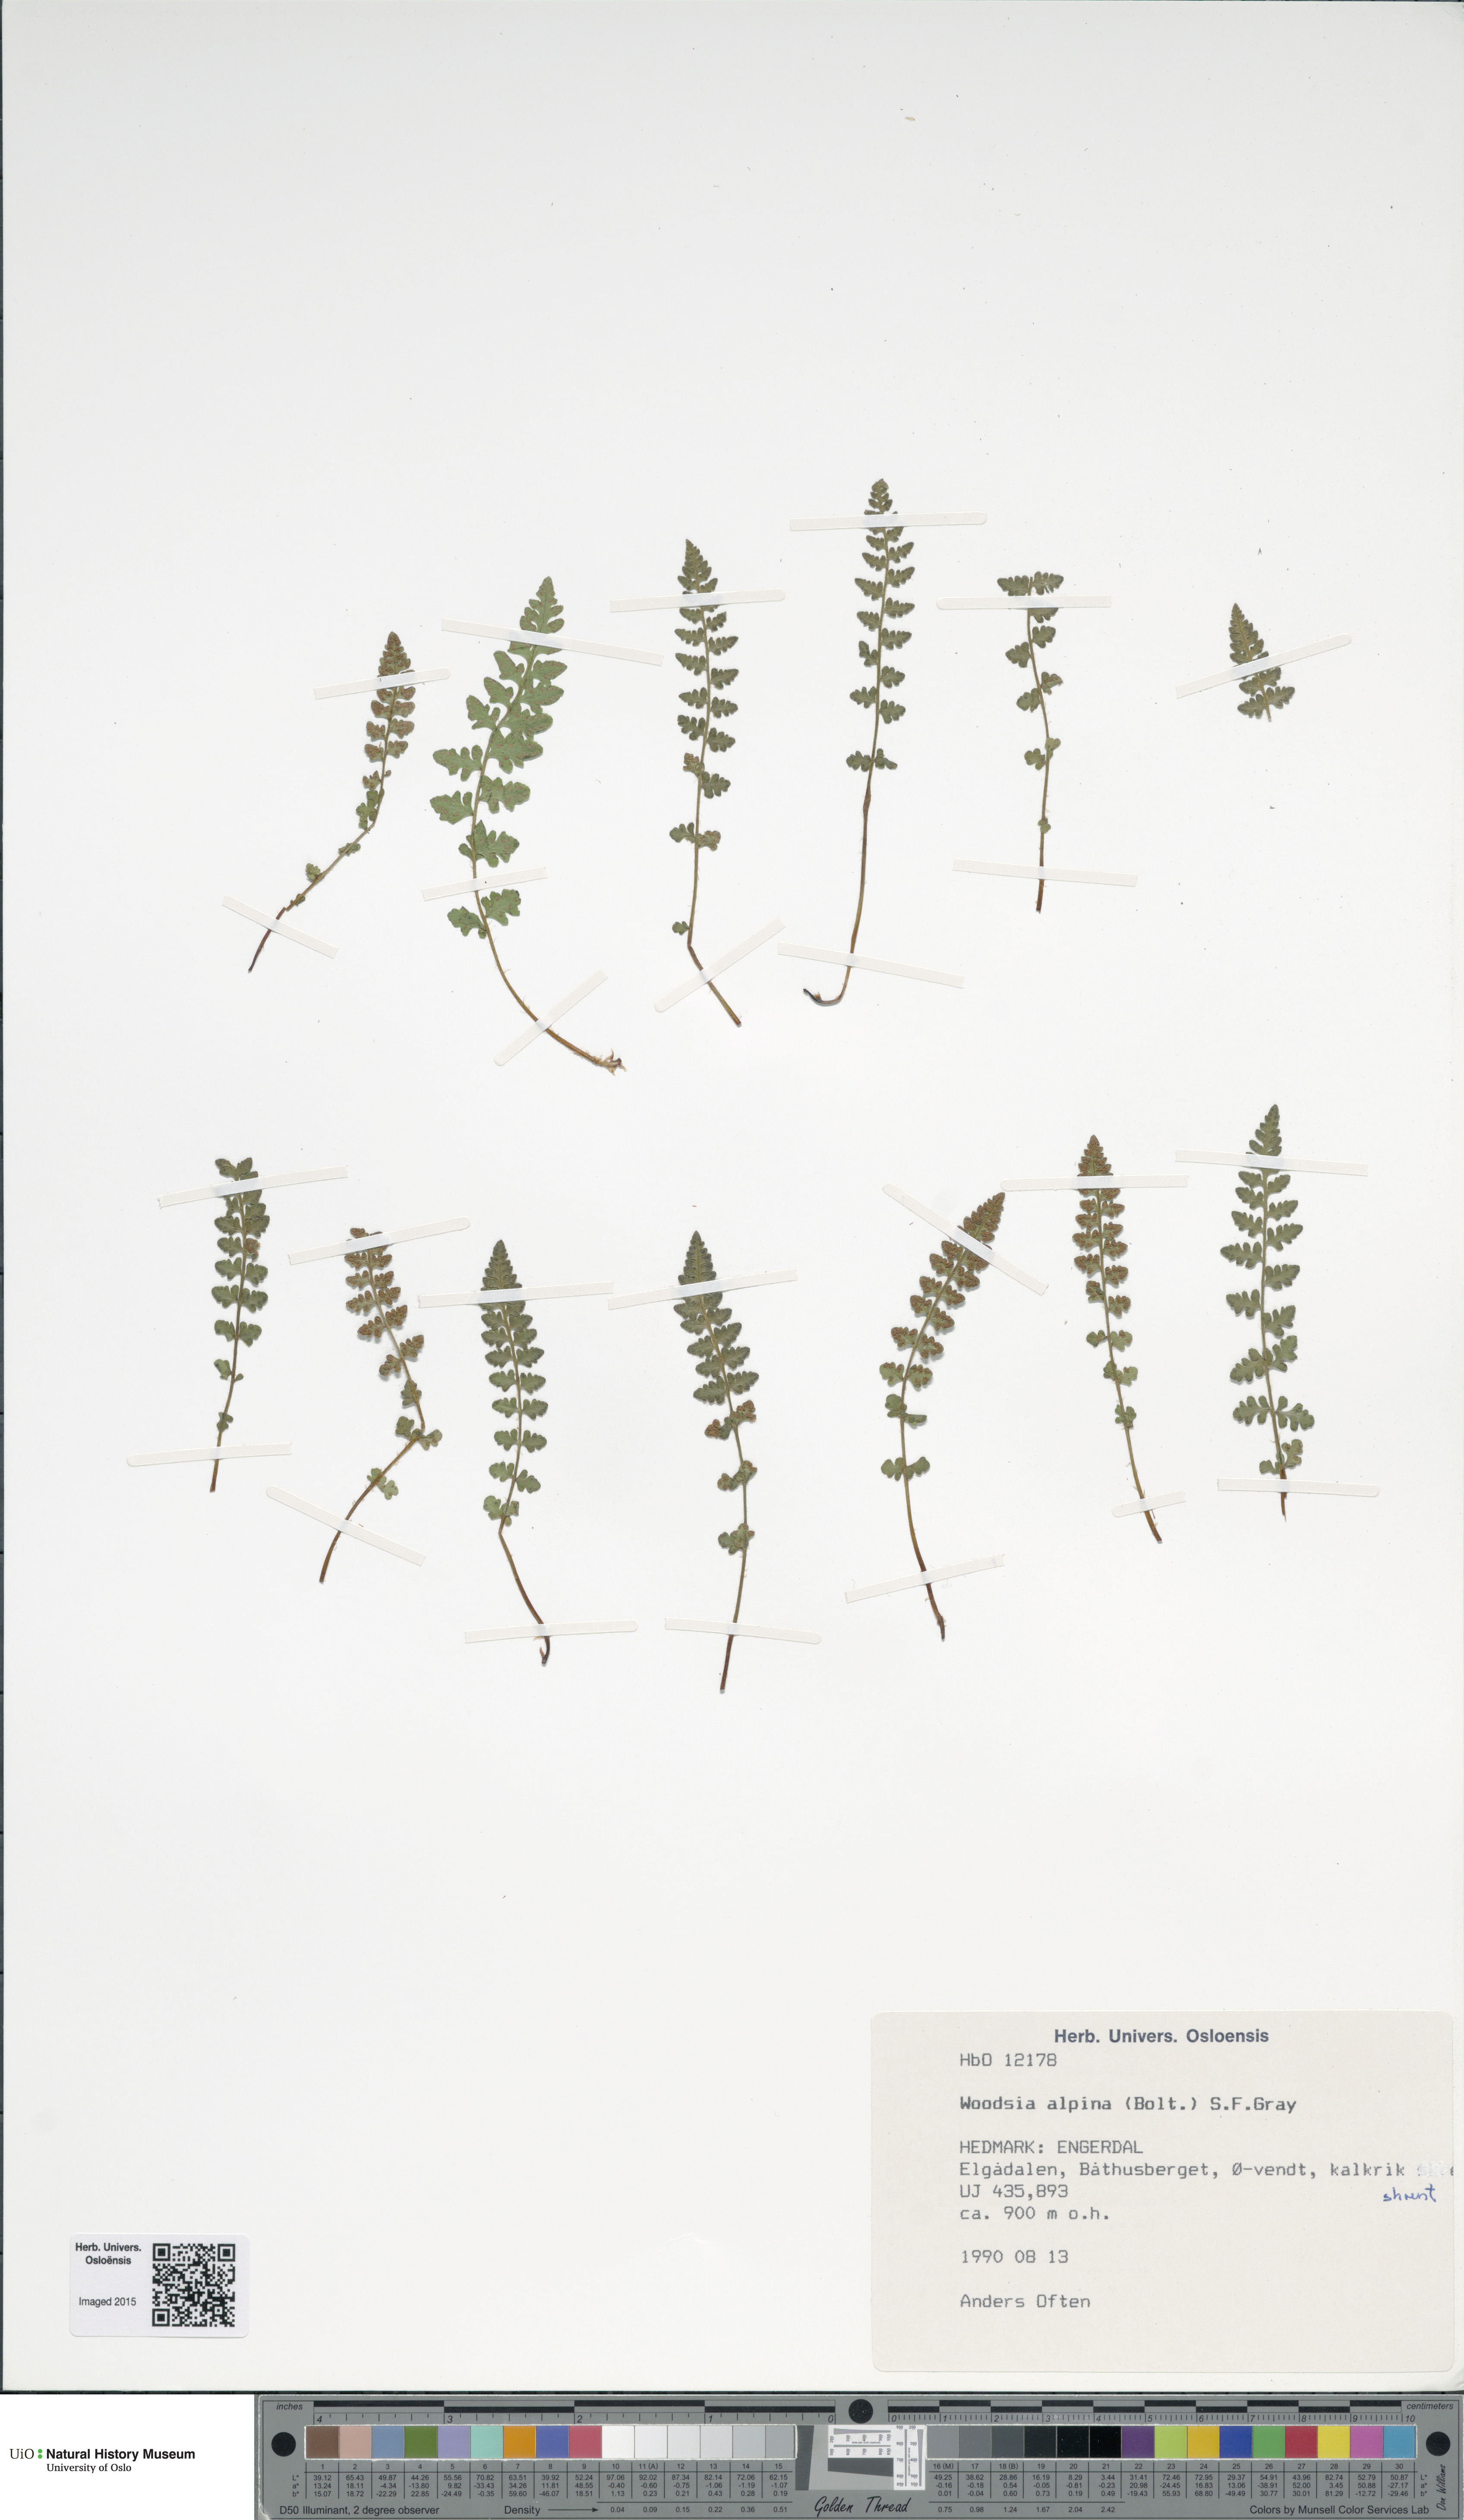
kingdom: Plantae
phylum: Tracheophyta
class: Polypodiopsida
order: Polypodiales
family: Woodsiaceae
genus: Woodsia
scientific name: Woodsia alpina
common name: Alpine woodsia
